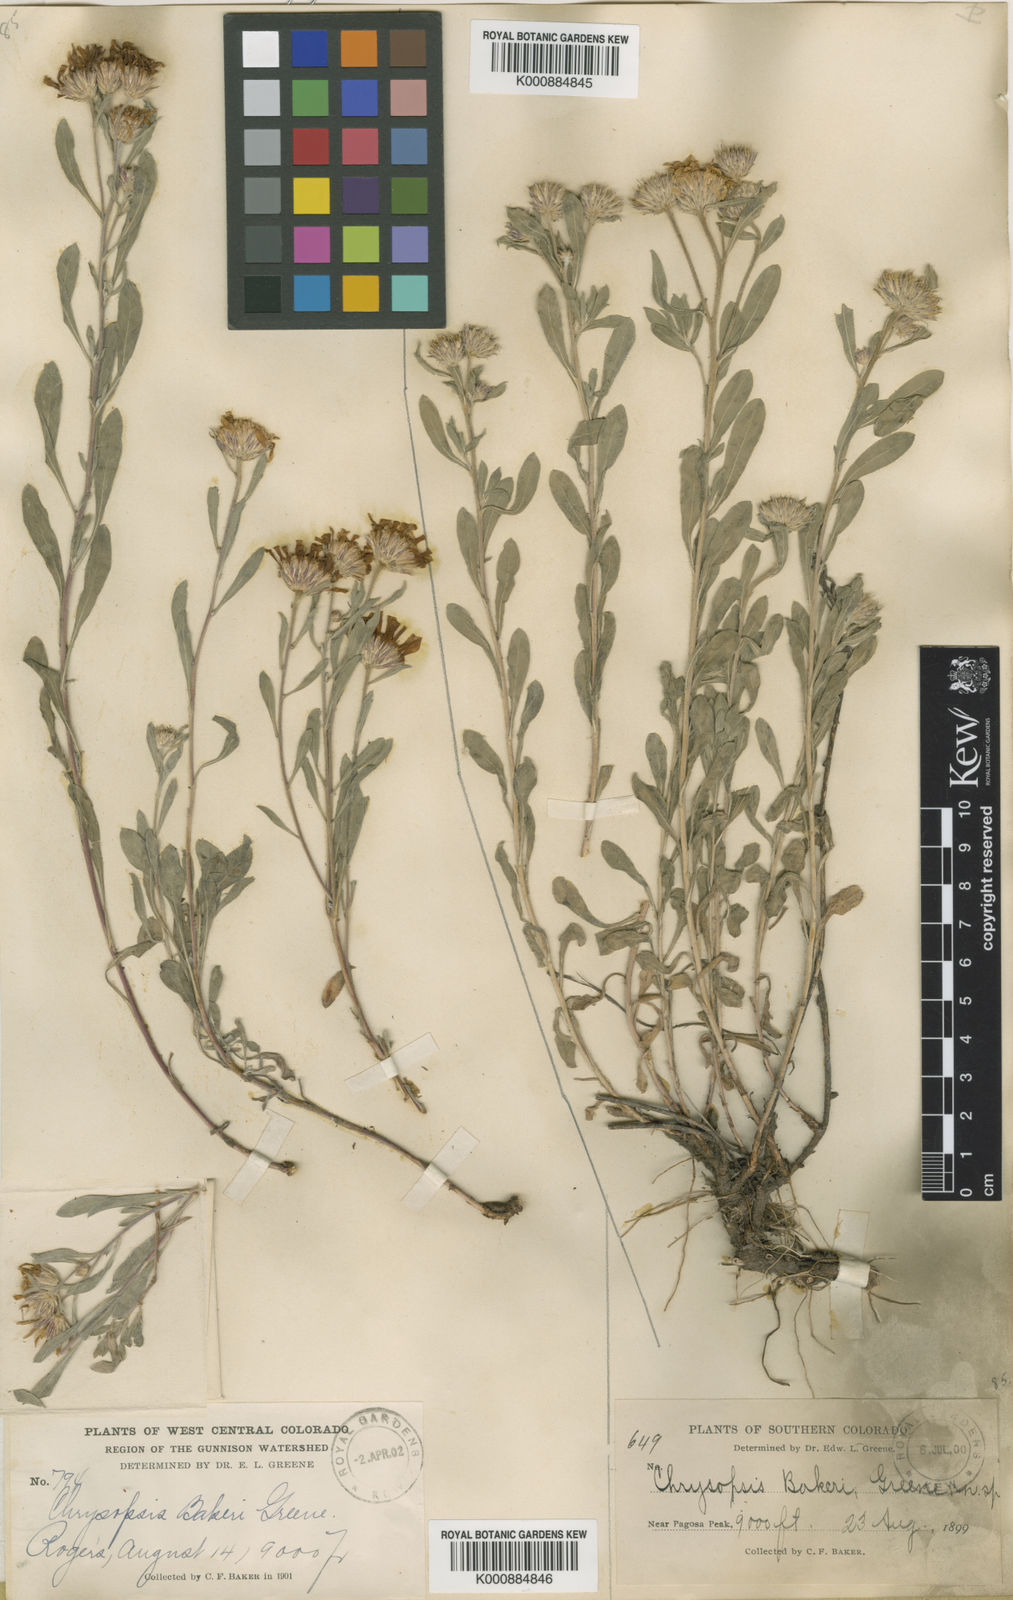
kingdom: Plantae
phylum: Tracheophyta
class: Magnoliopsida
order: Asterales
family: Asteraceae
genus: Heterotheca
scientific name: Heterotheca
